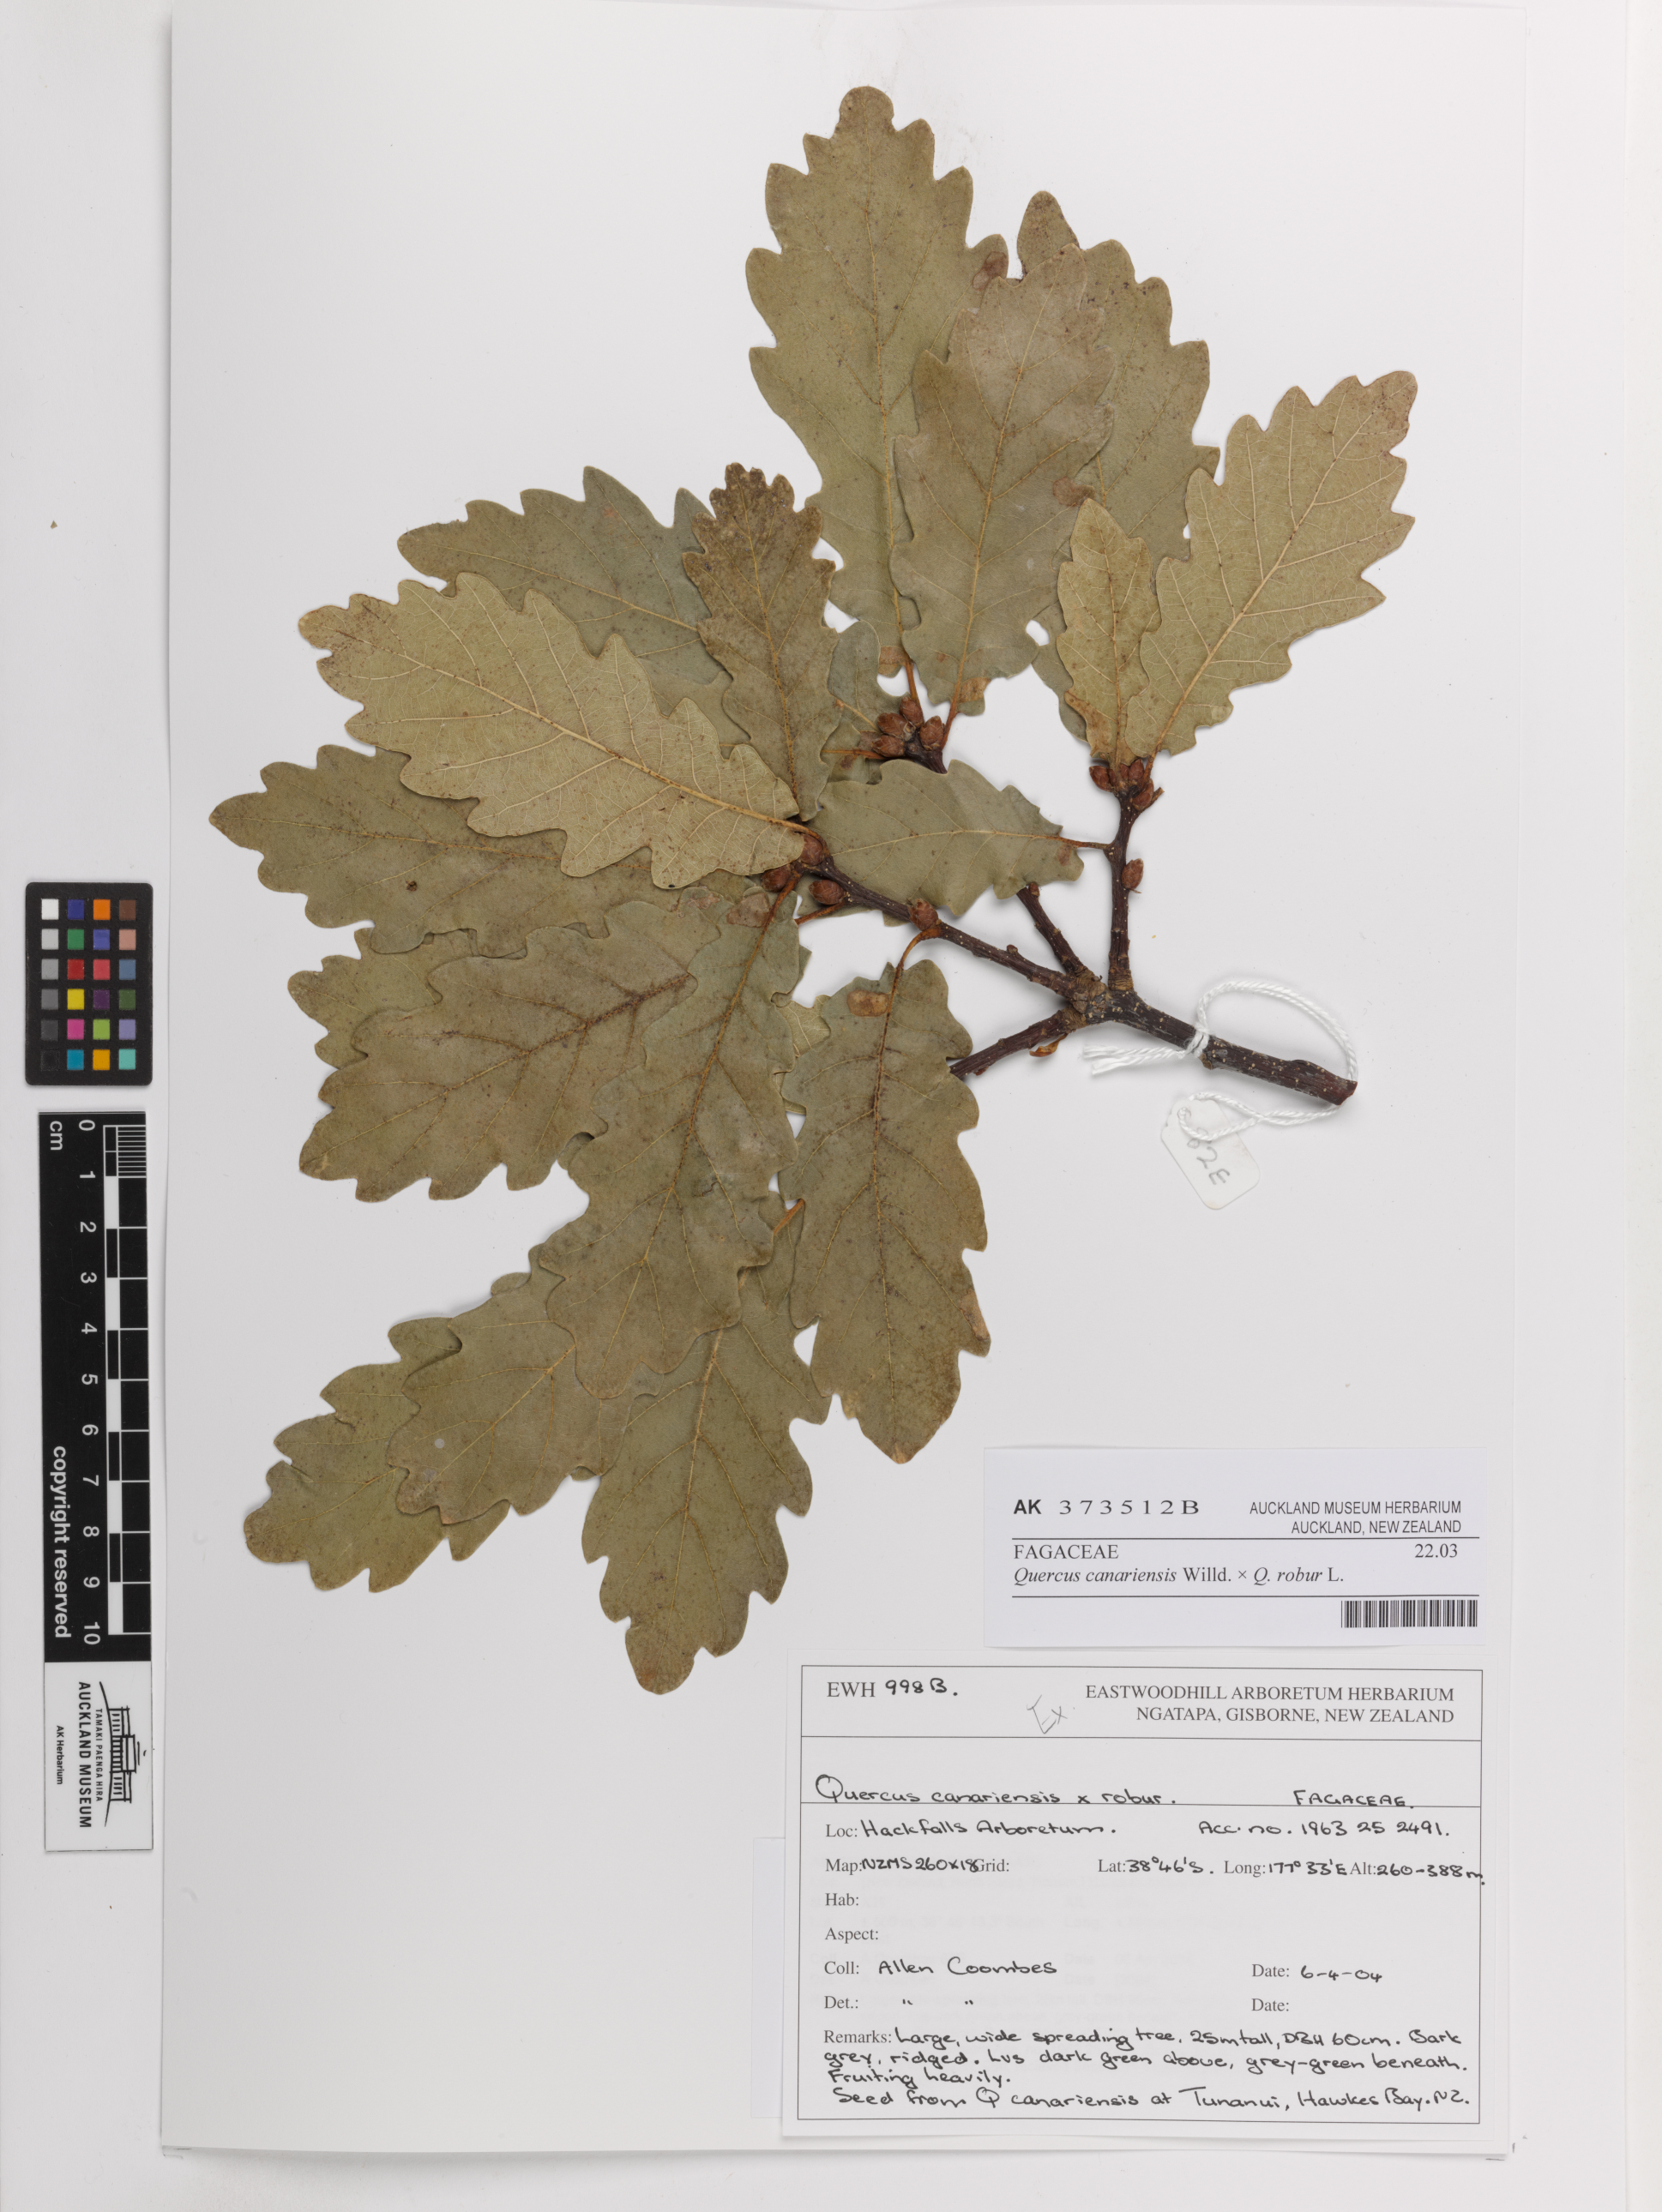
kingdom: Plantae
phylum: Tracheophyta
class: Magnoliopsida
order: Fagales
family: Fagaceae
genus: Quercus
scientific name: Quercus
